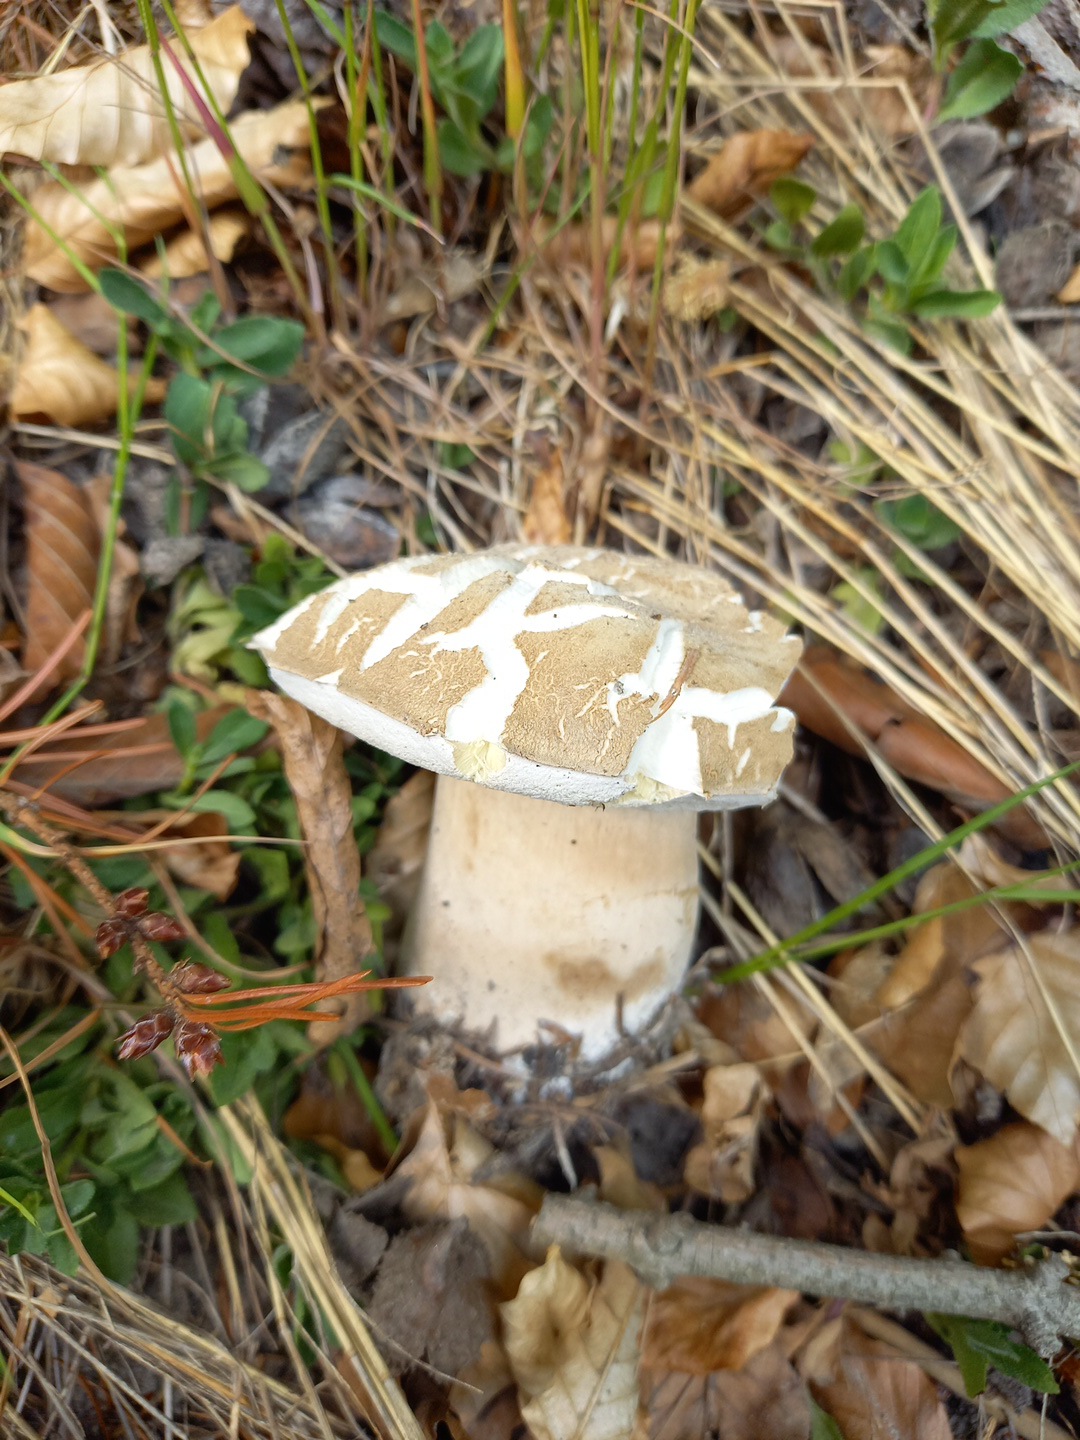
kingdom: Fungi
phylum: Basidiomycota
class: Agaricomycetes
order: Boletales
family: Boletaceae
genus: Boletus
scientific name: Boletus reticulatus
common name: sommer-rørhat
